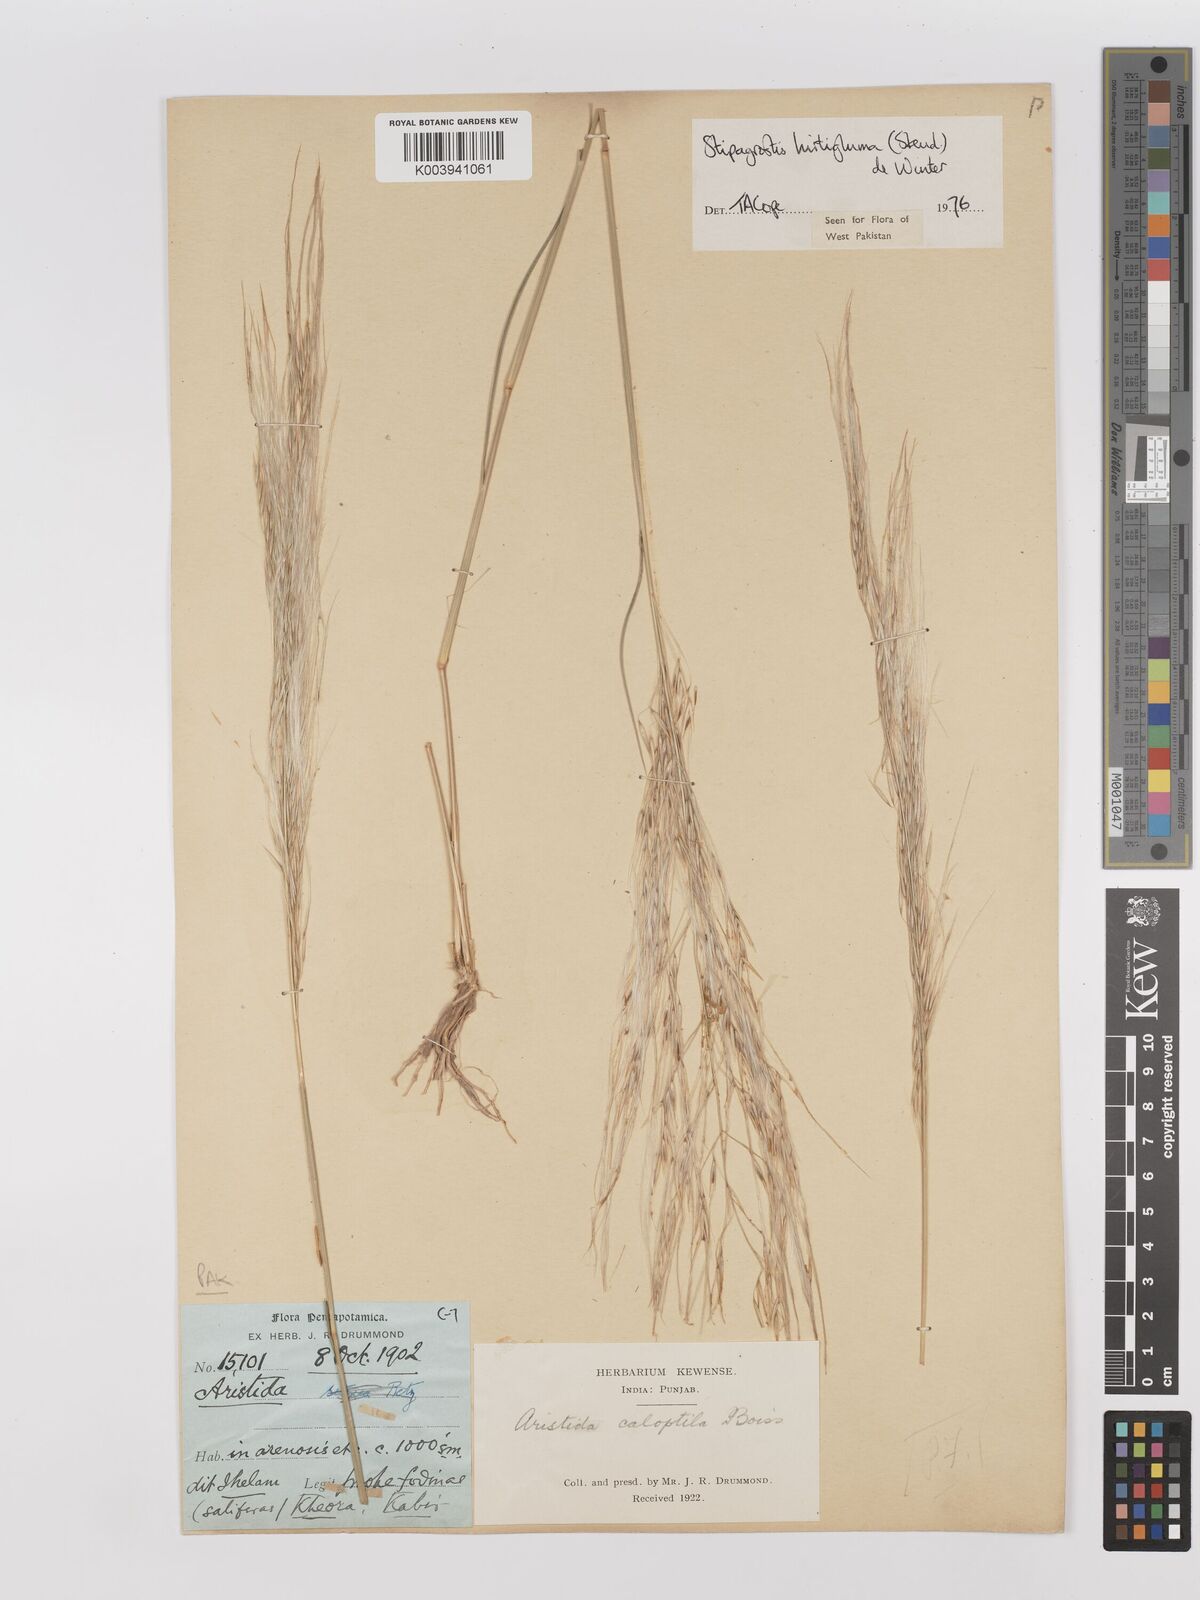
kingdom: Plantae
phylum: Tracheophyta
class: Liliopsida
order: Poales
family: Poaceae
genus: Stipagrostis
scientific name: Stipagrostis hirtigluma
